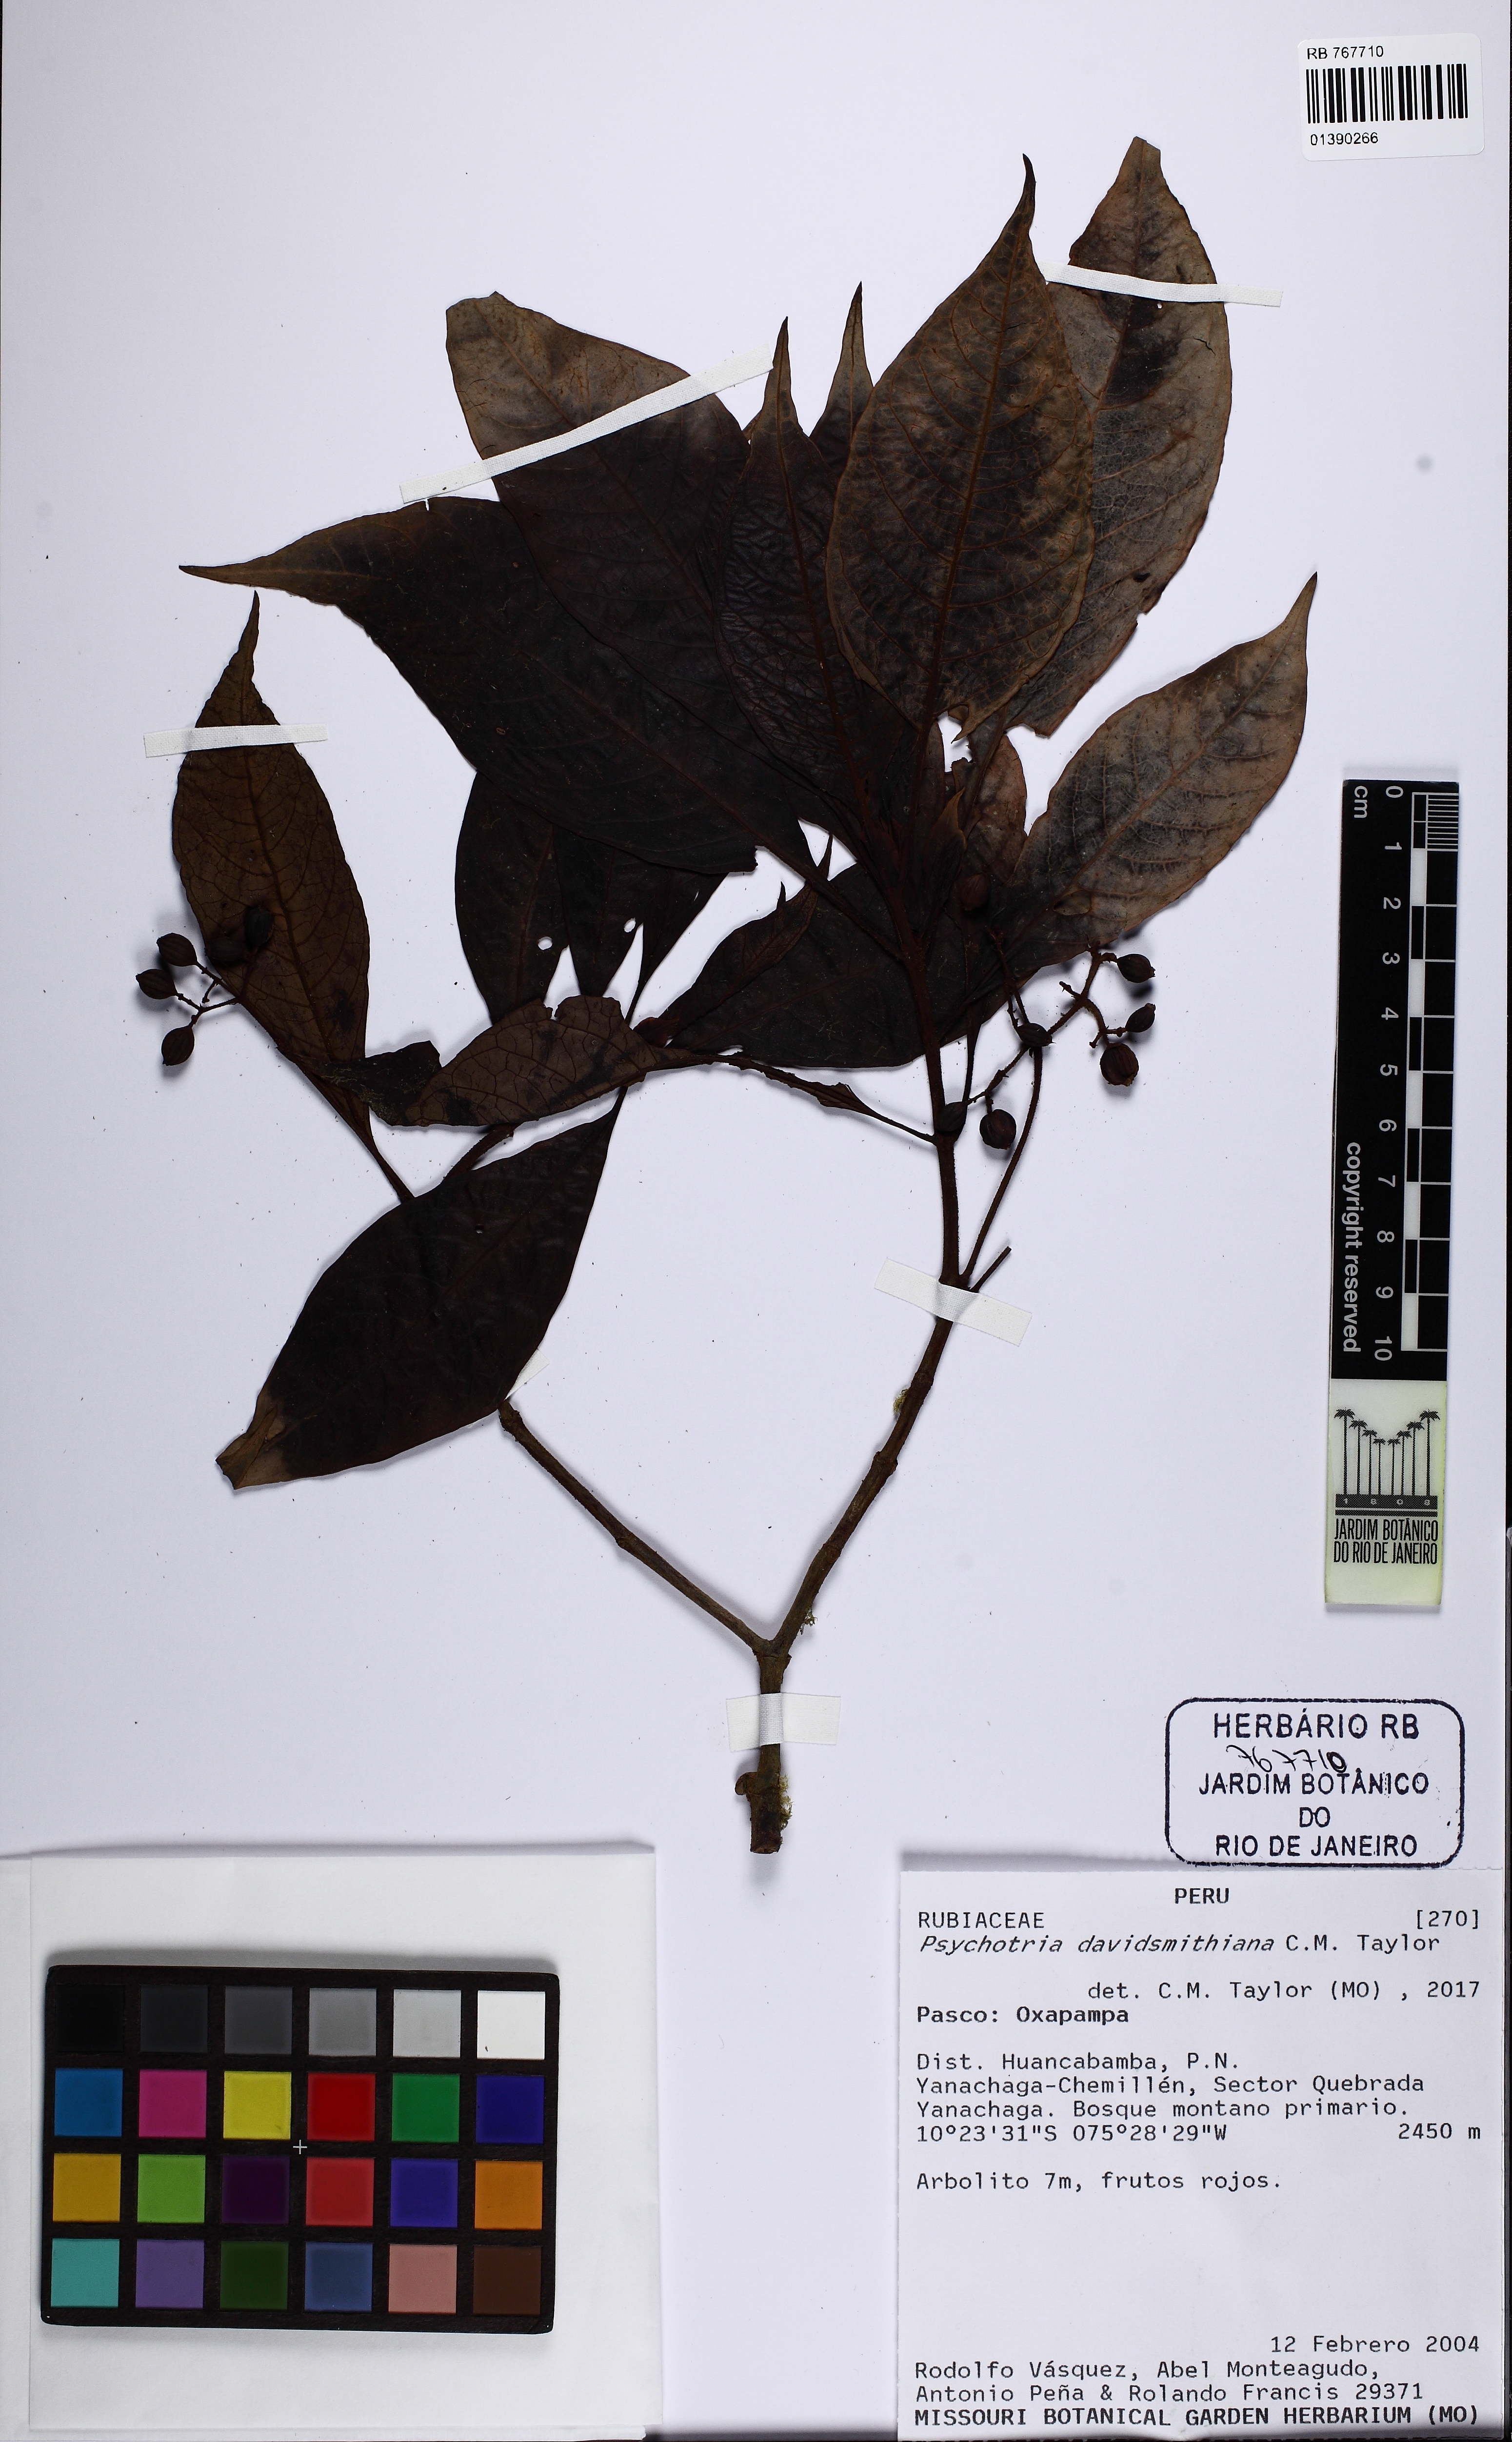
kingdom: Plantae
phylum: Tracheophyta
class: Magnoliopsida
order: Gentianales
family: Rubiaceae
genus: Psychotria
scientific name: Psychotria davidsmithiana
